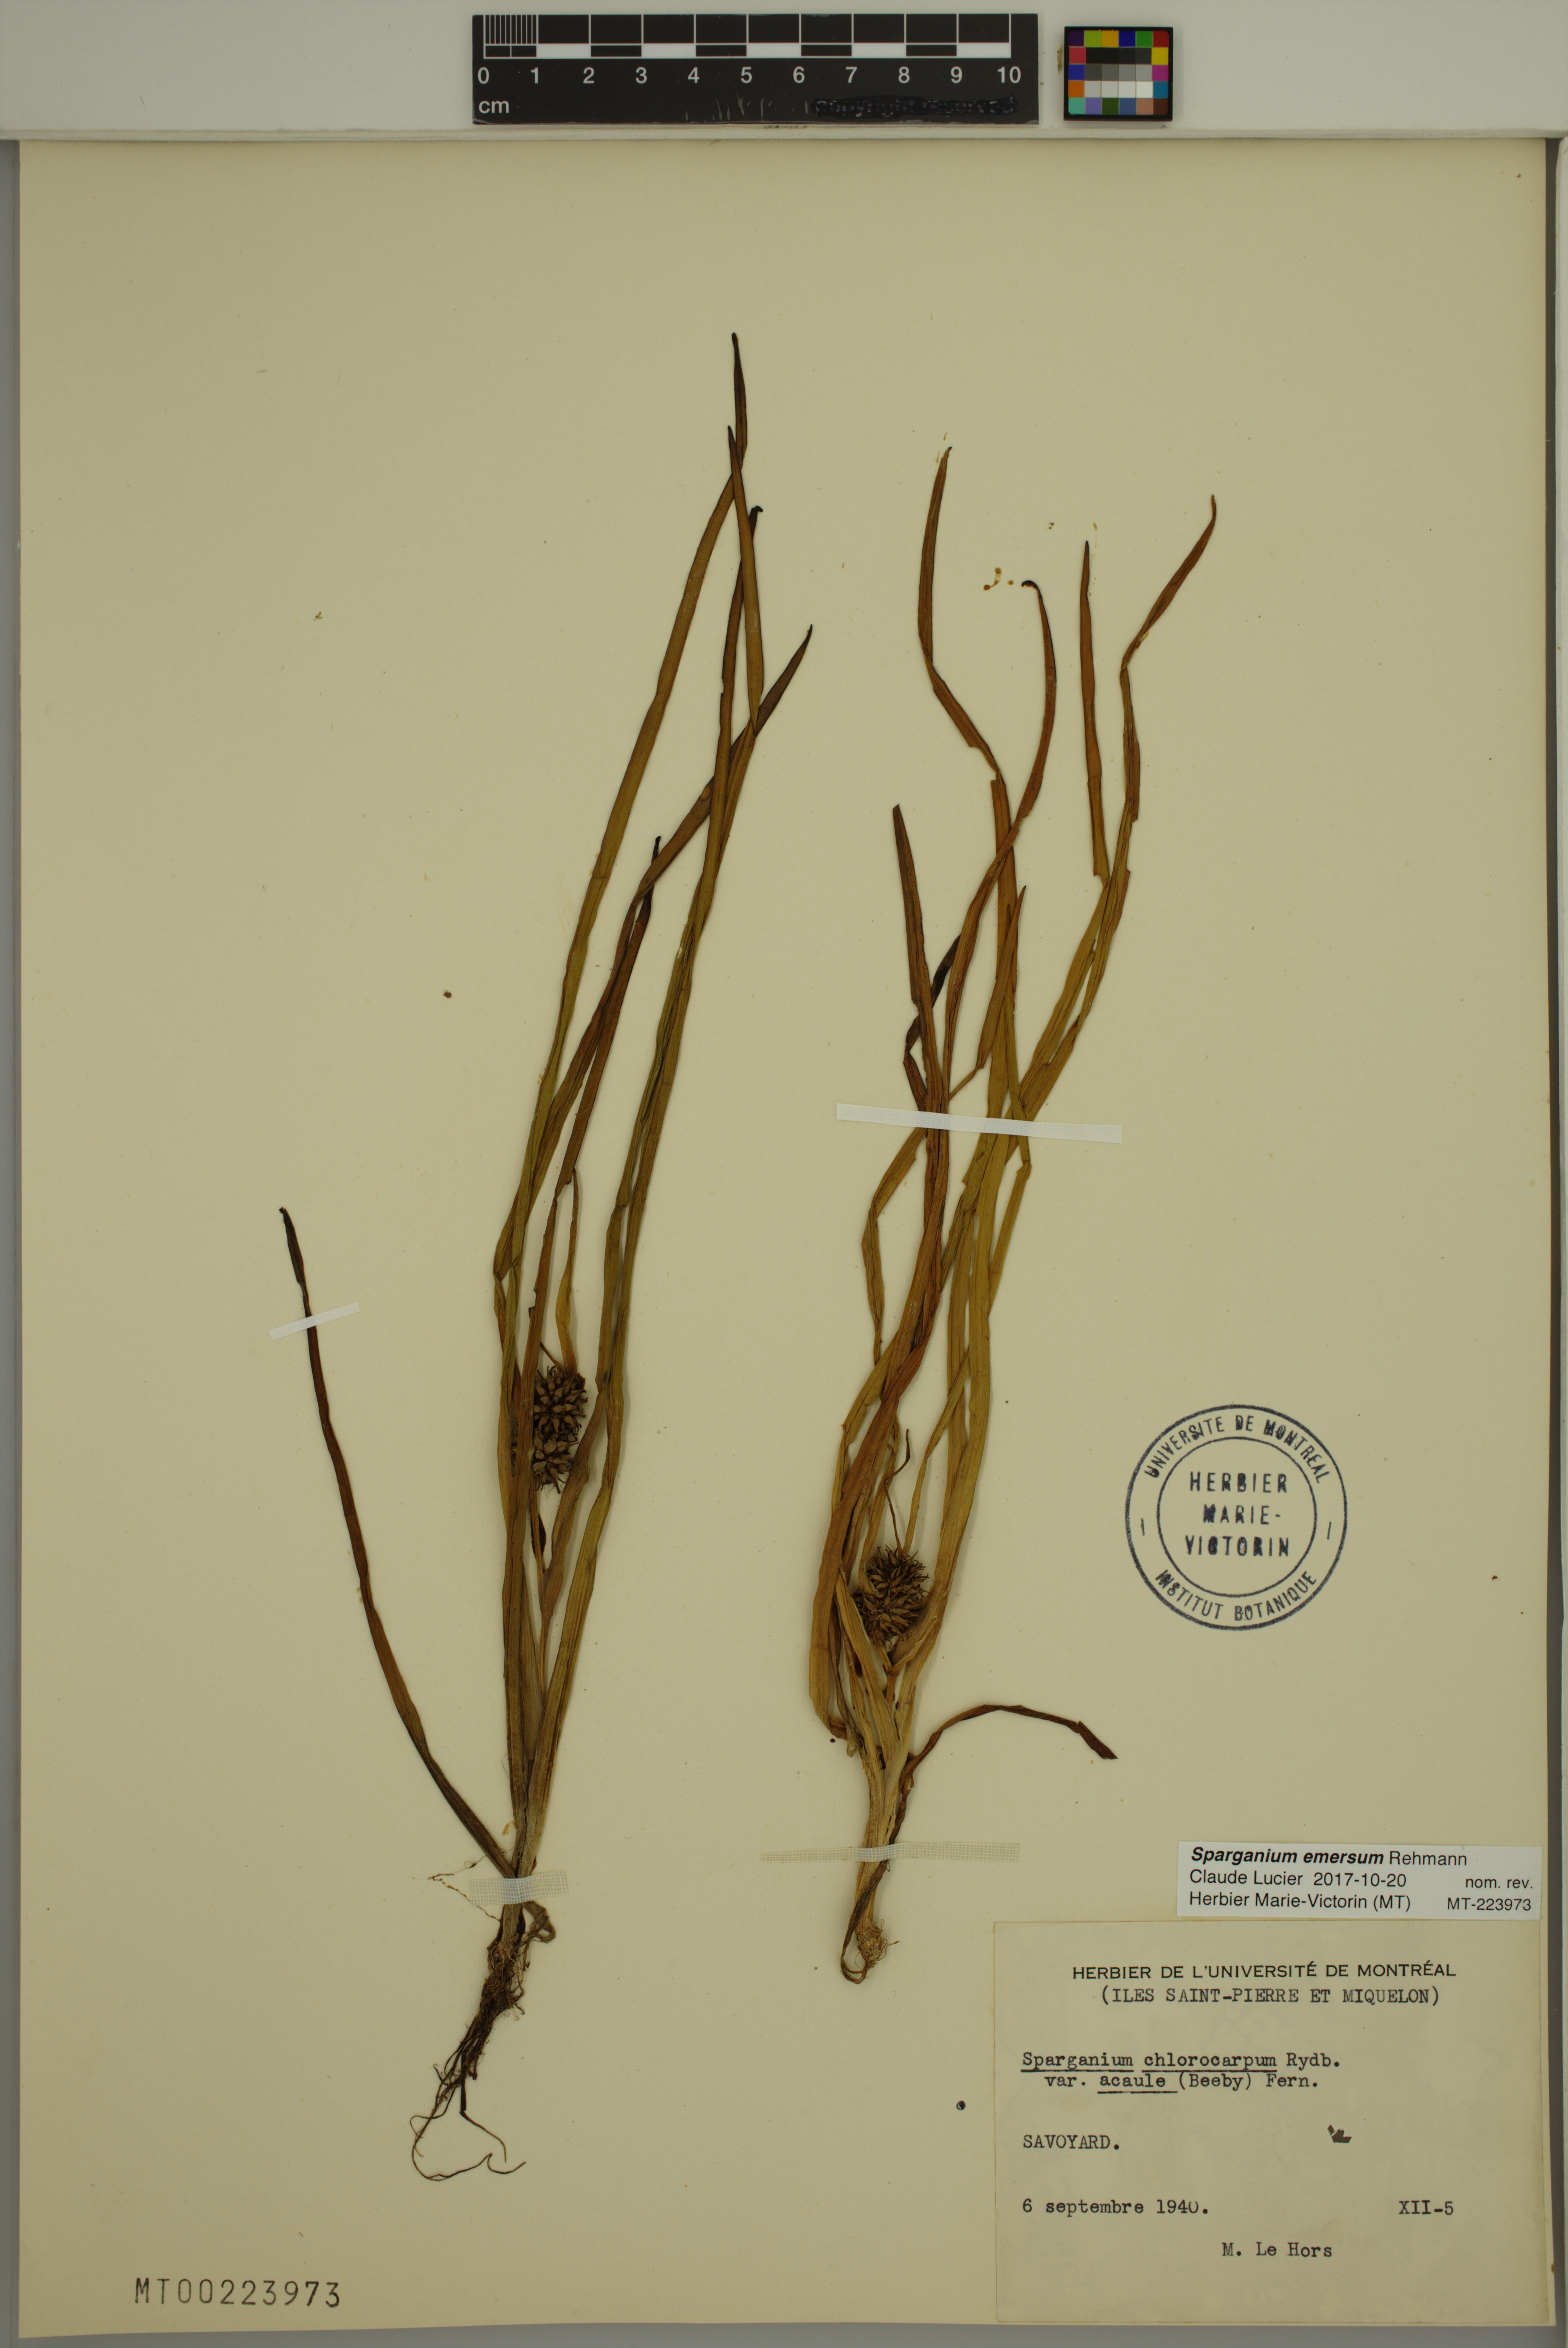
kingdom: Plantae
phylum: Tracheophyta
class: Liliopsida
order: Poales
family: Typhaceae
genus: Sparganium
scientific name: Sparganium emersum
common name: Unbranched bur-reed
